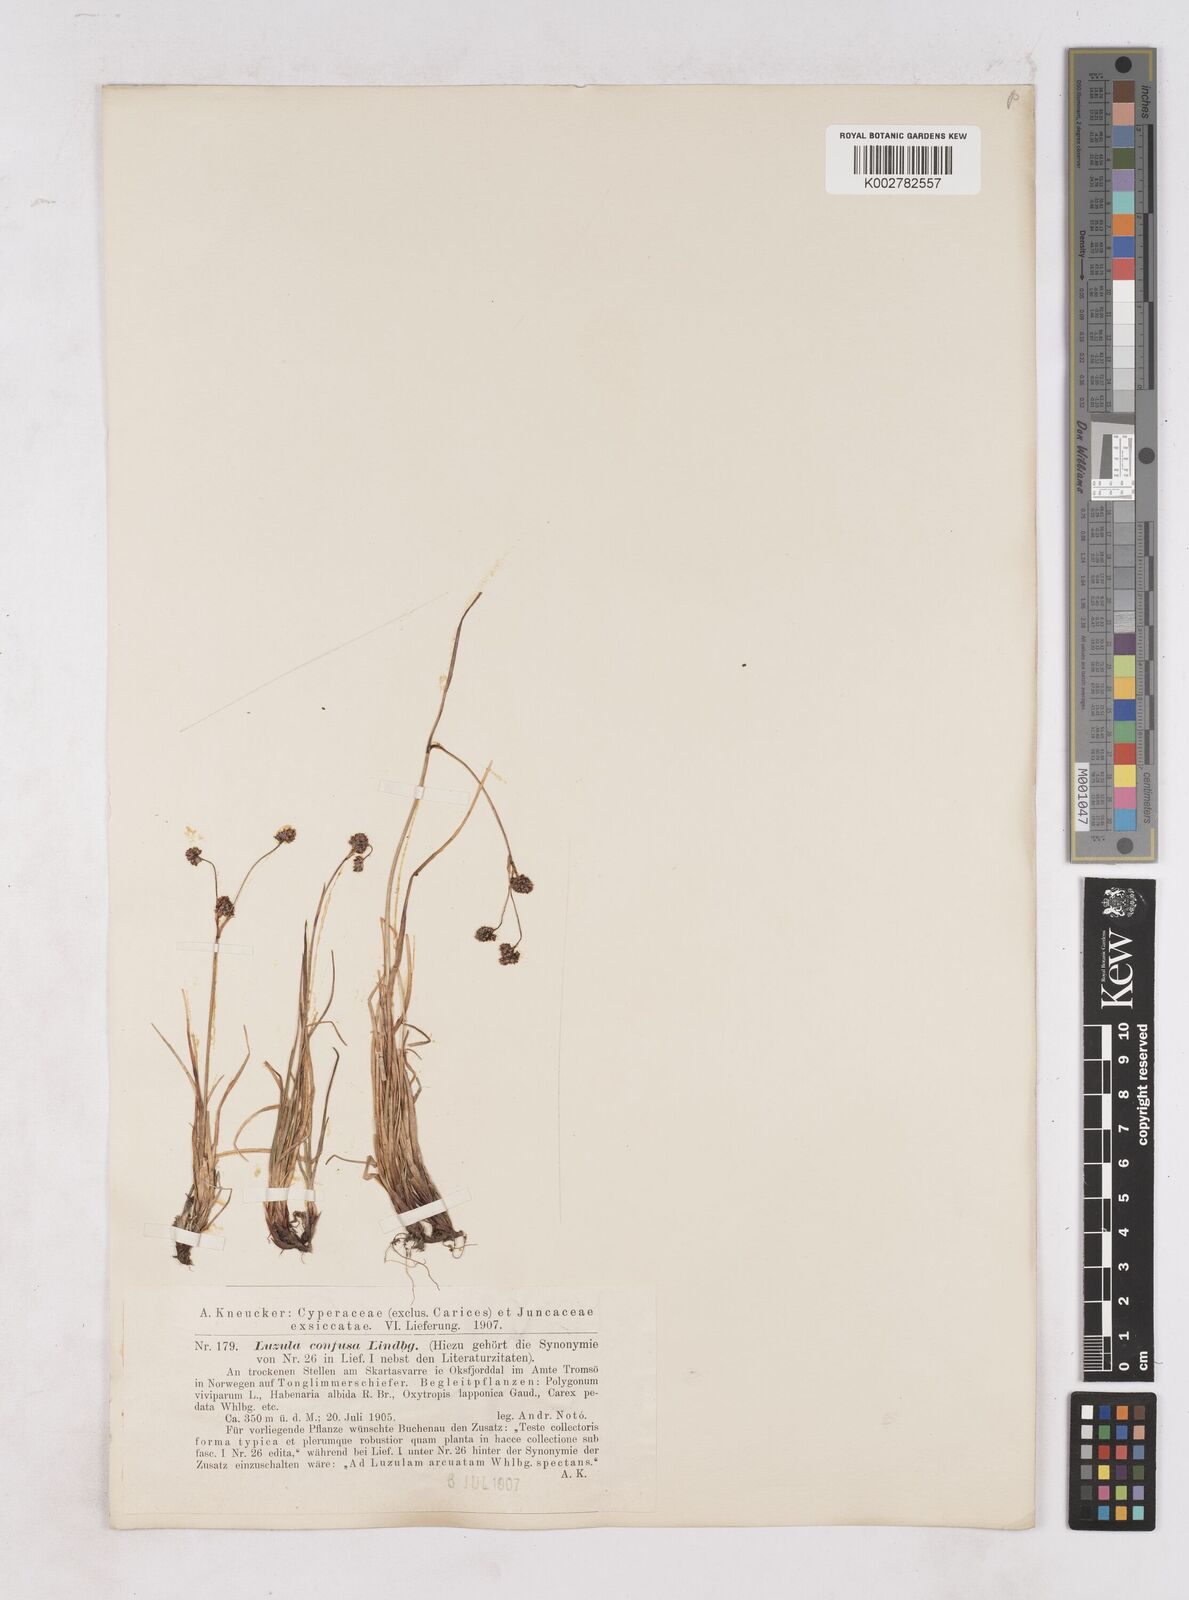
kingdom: Plantae
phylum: Tracheophyta
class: Liliopsida
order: Poales
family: Juncaceae
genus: Luzula
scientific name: Luzula confusa
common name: Northern wood rush
